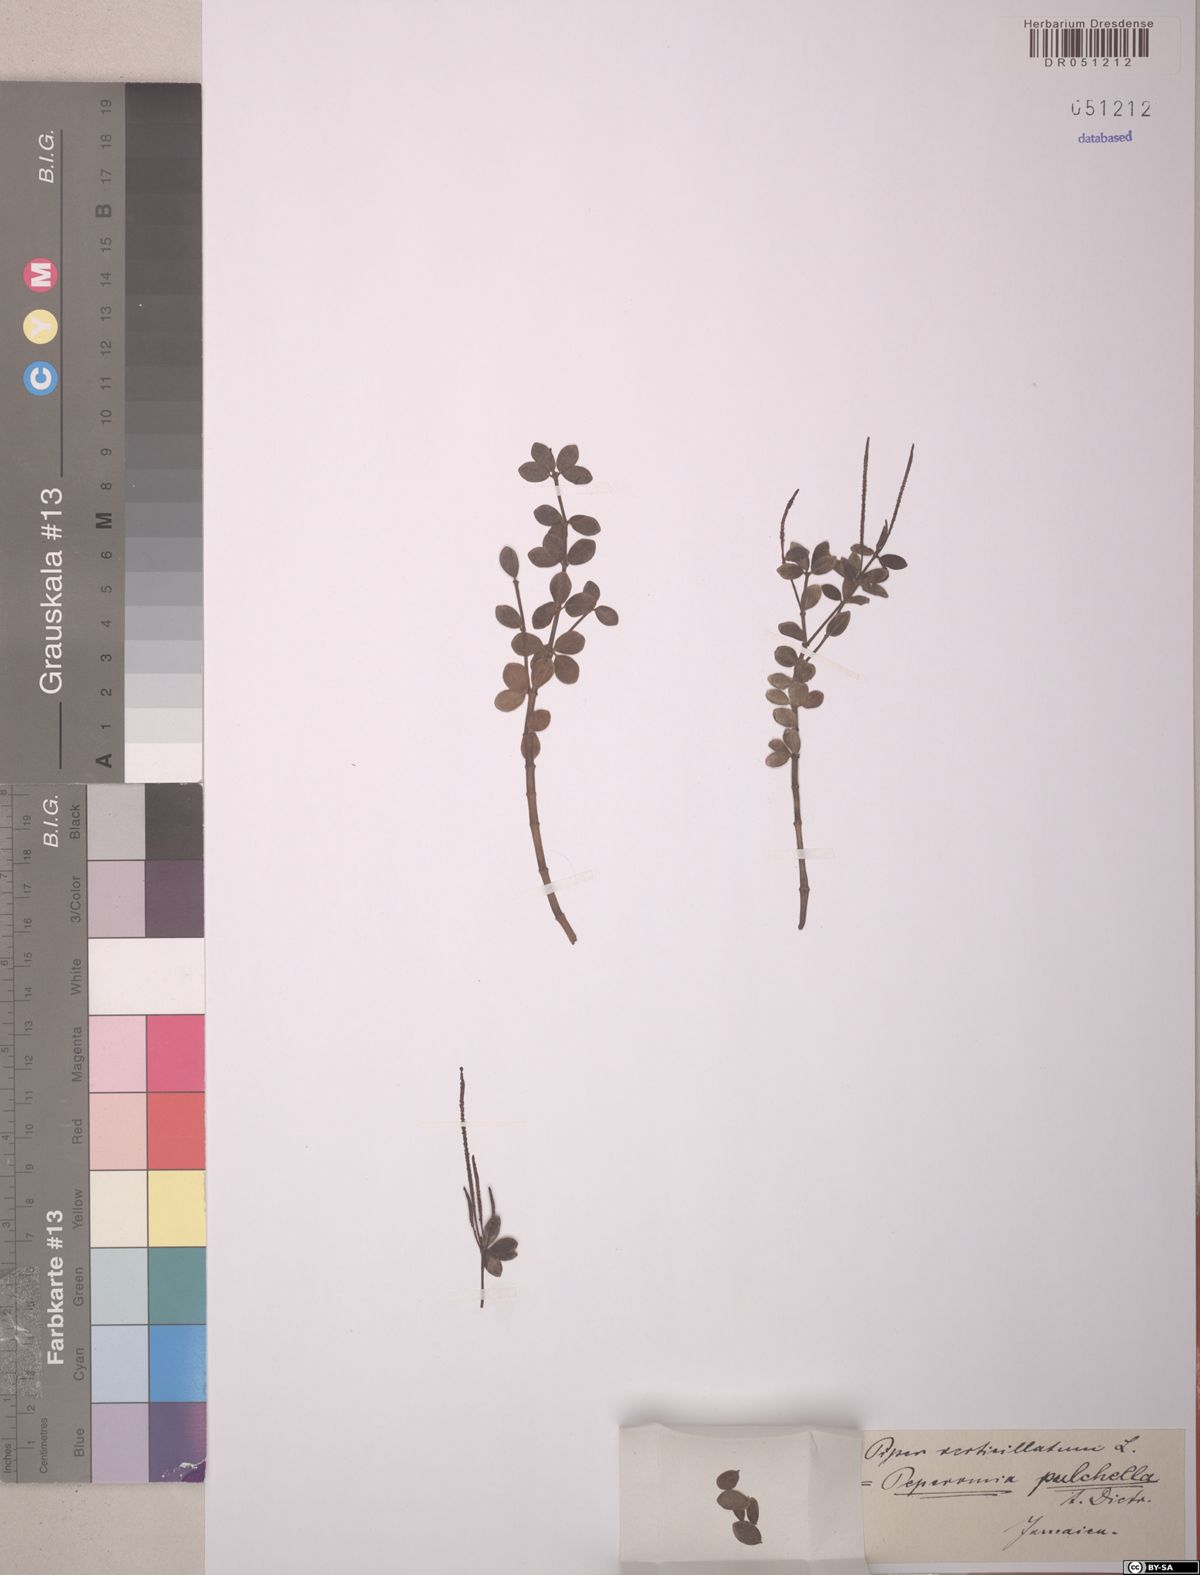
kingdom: Plantae
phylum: Tracheophyta
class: Magnoliopsida
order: Piperales
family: Piperaceae
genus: Peperomia
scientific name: Peperomia verticillata
